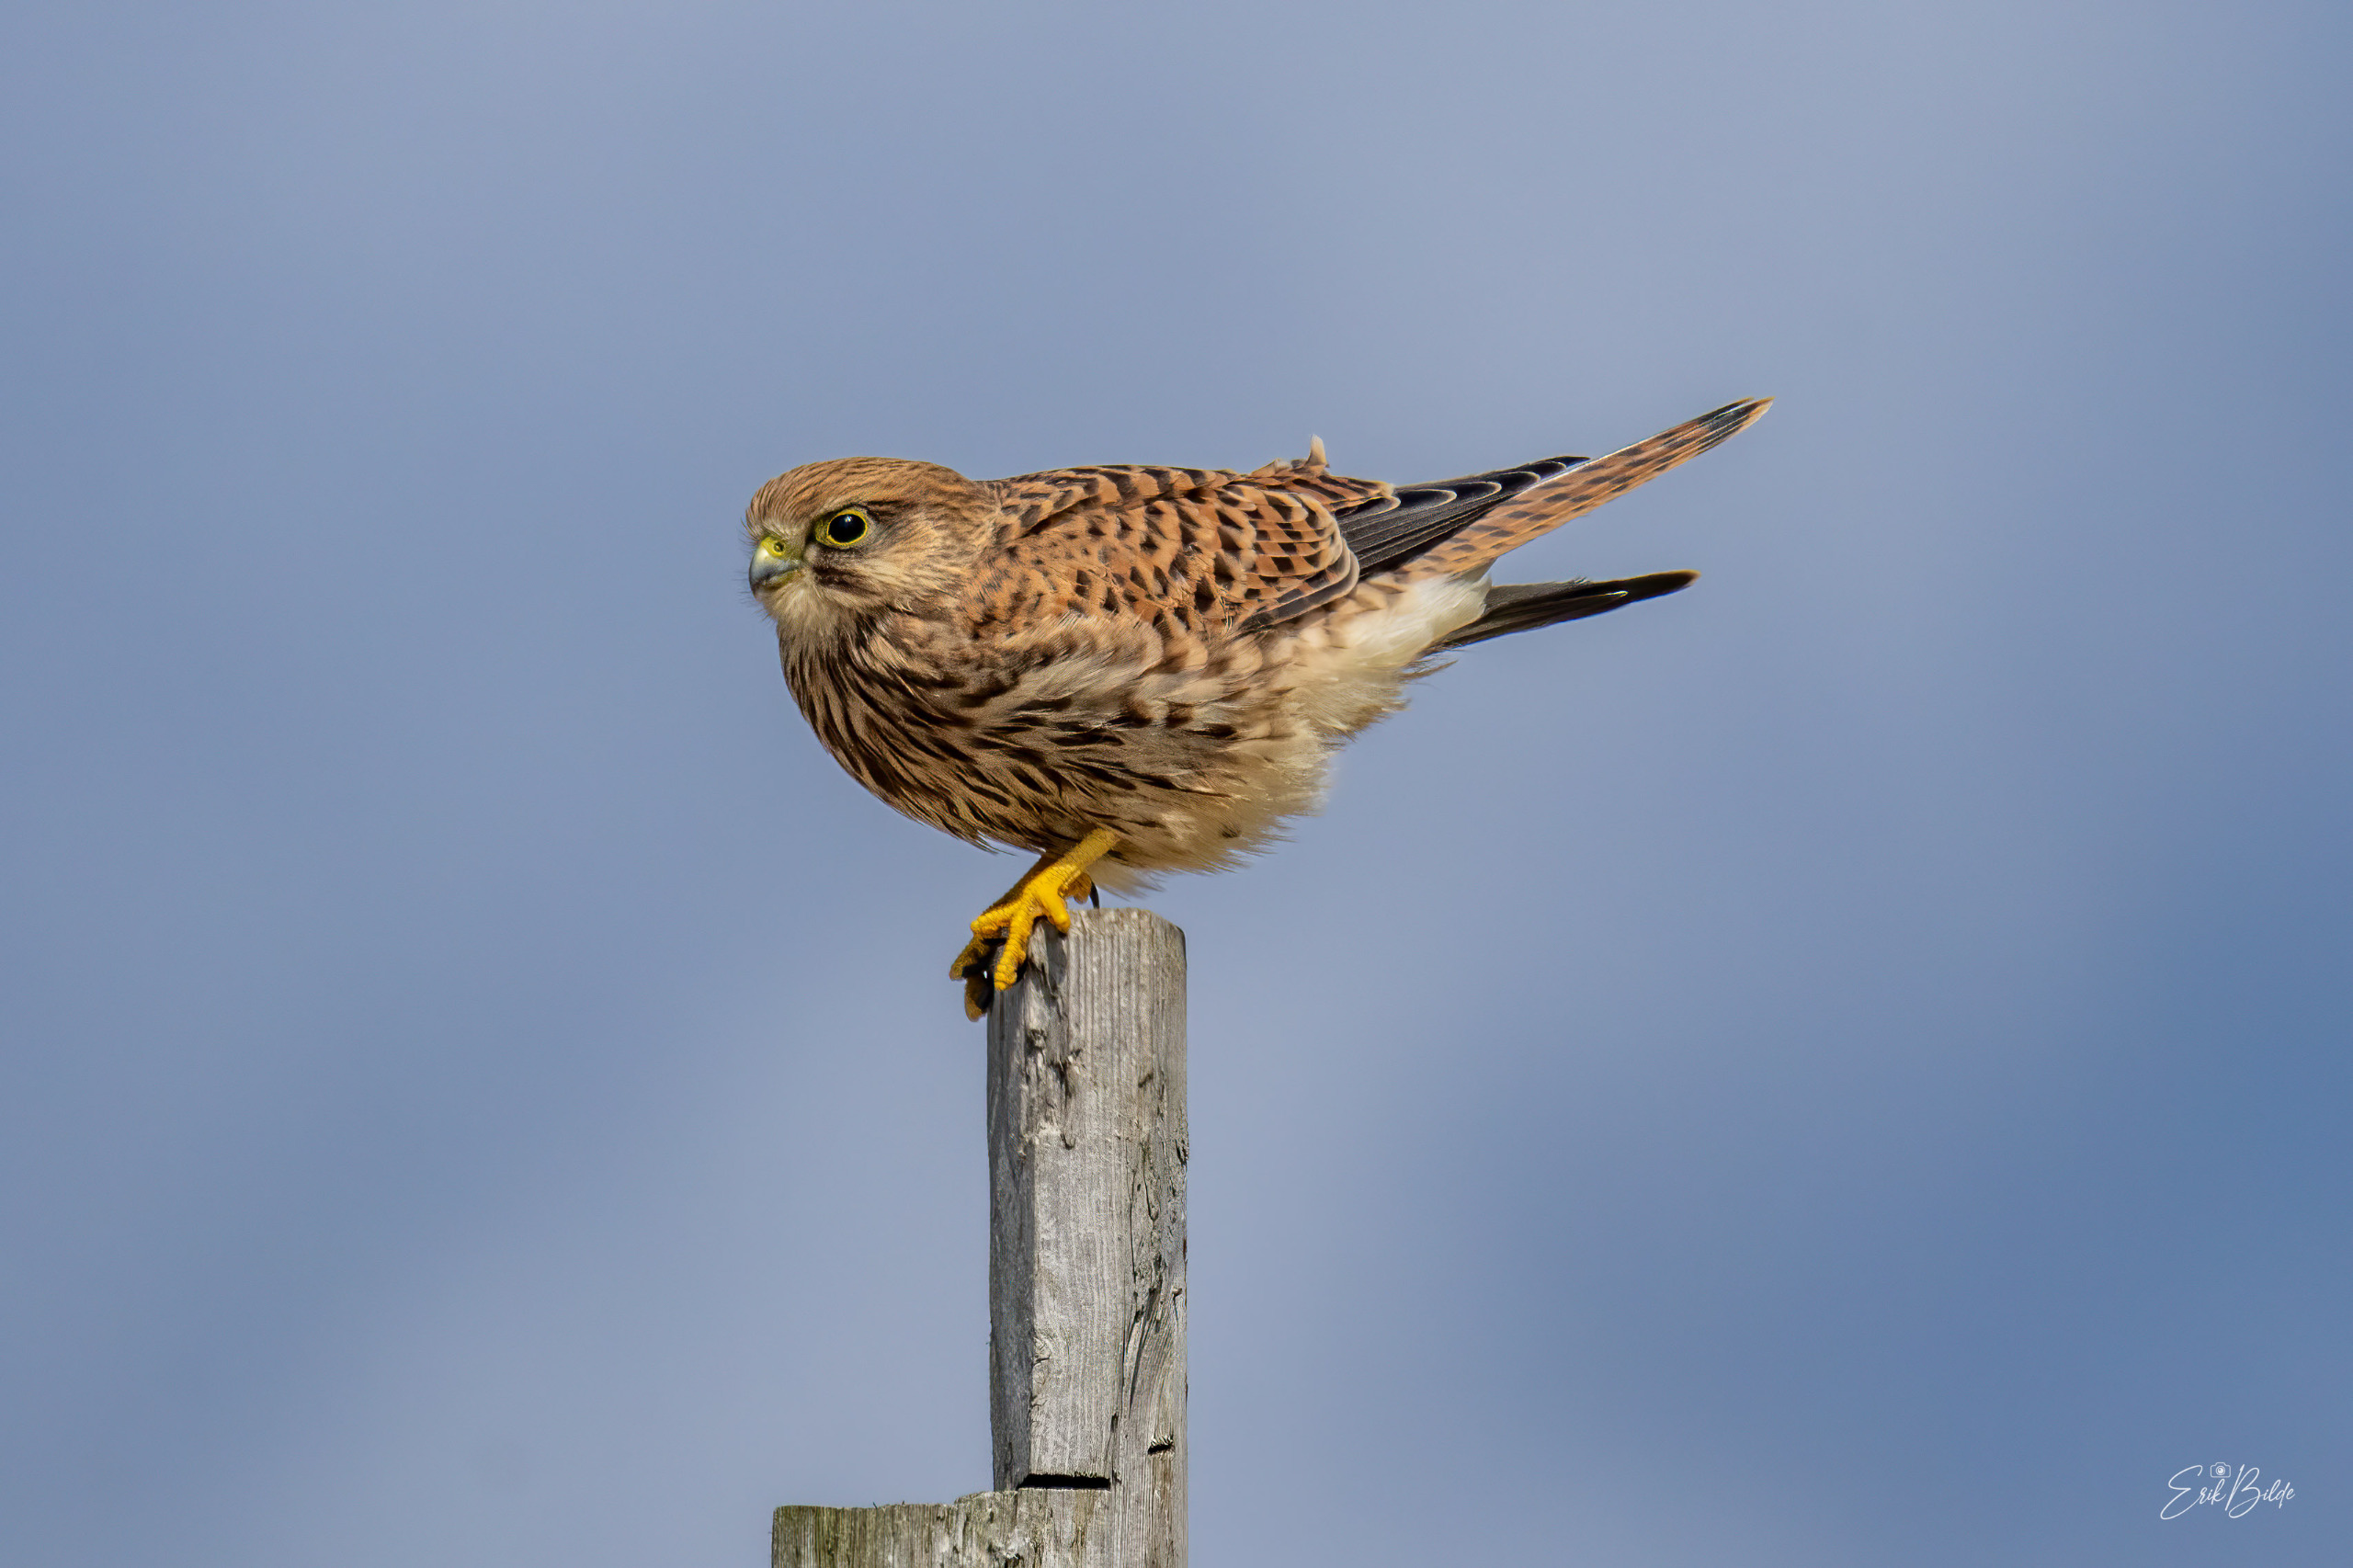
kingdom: Animalia
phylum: Chordata
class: Aves
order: Falconiformes
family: Falconidae
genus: Falco
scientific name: Falco tinnunculus
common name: Tårnfalk
